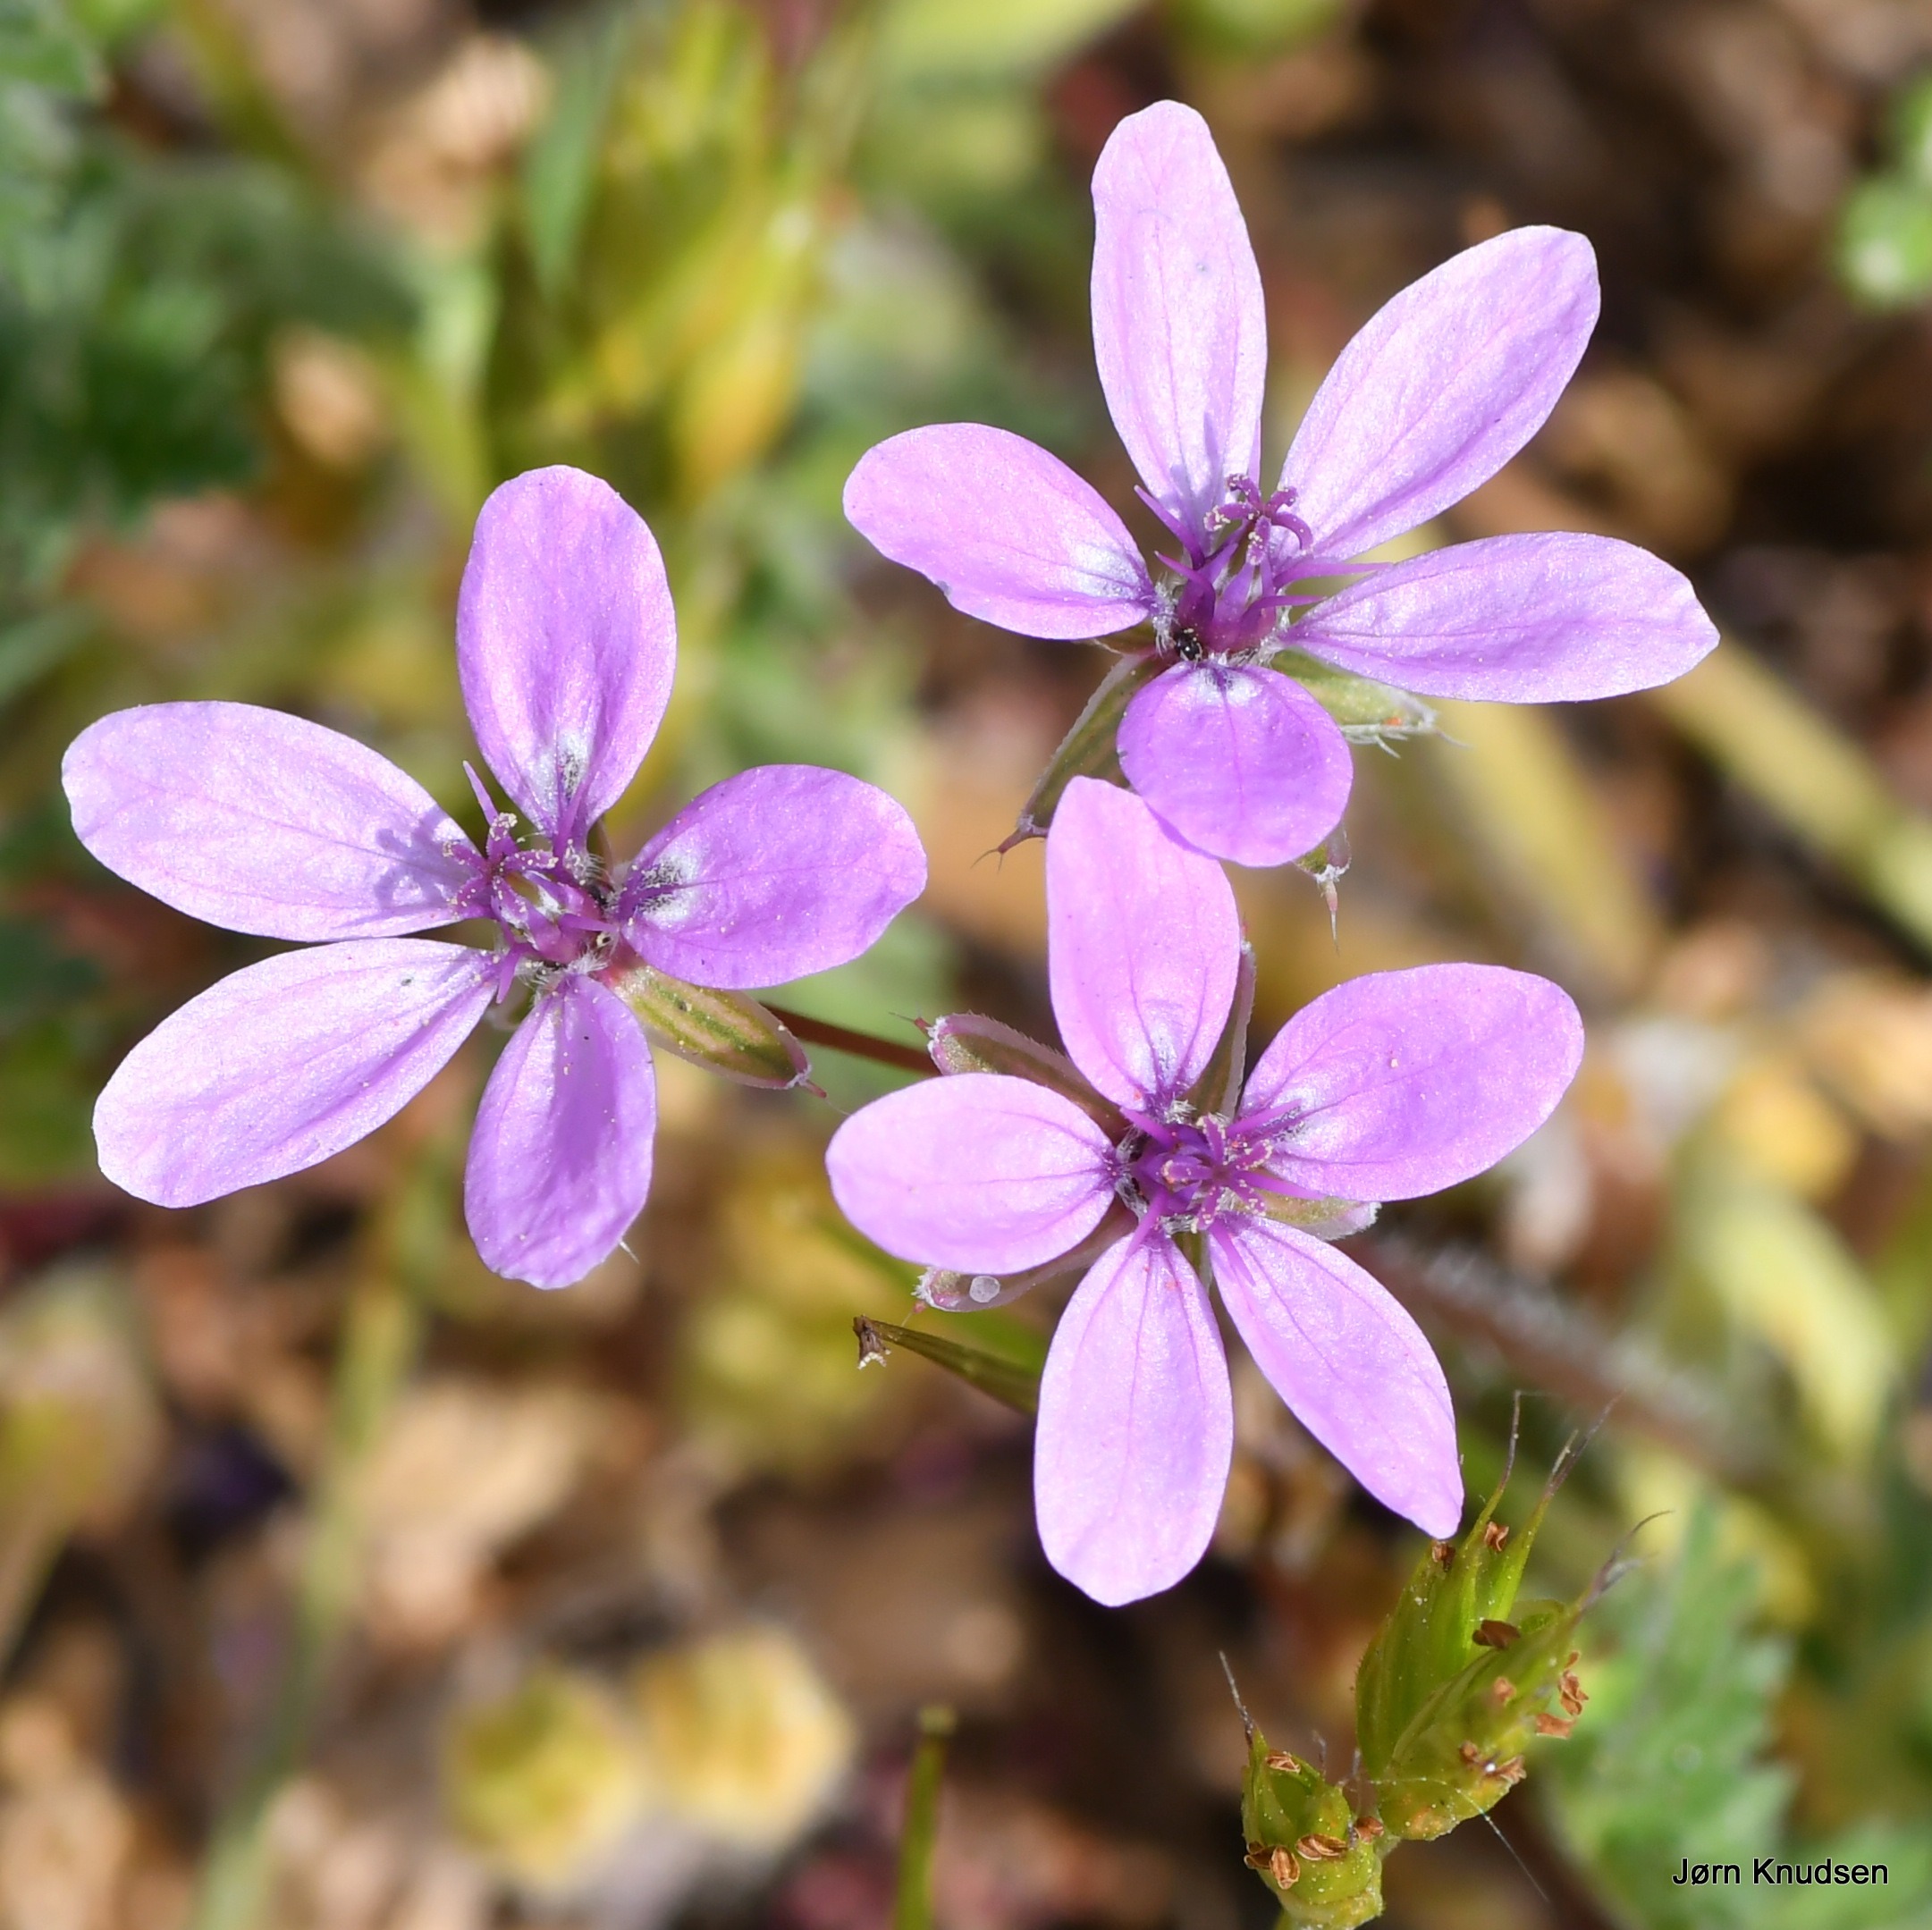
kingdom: Plantae
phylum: Tracheophyta
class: Magnoliopsida
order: Geraniales
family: Geraniaceae
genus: Erodium
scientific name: Erodium cicutarium
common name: Hejrenæb
